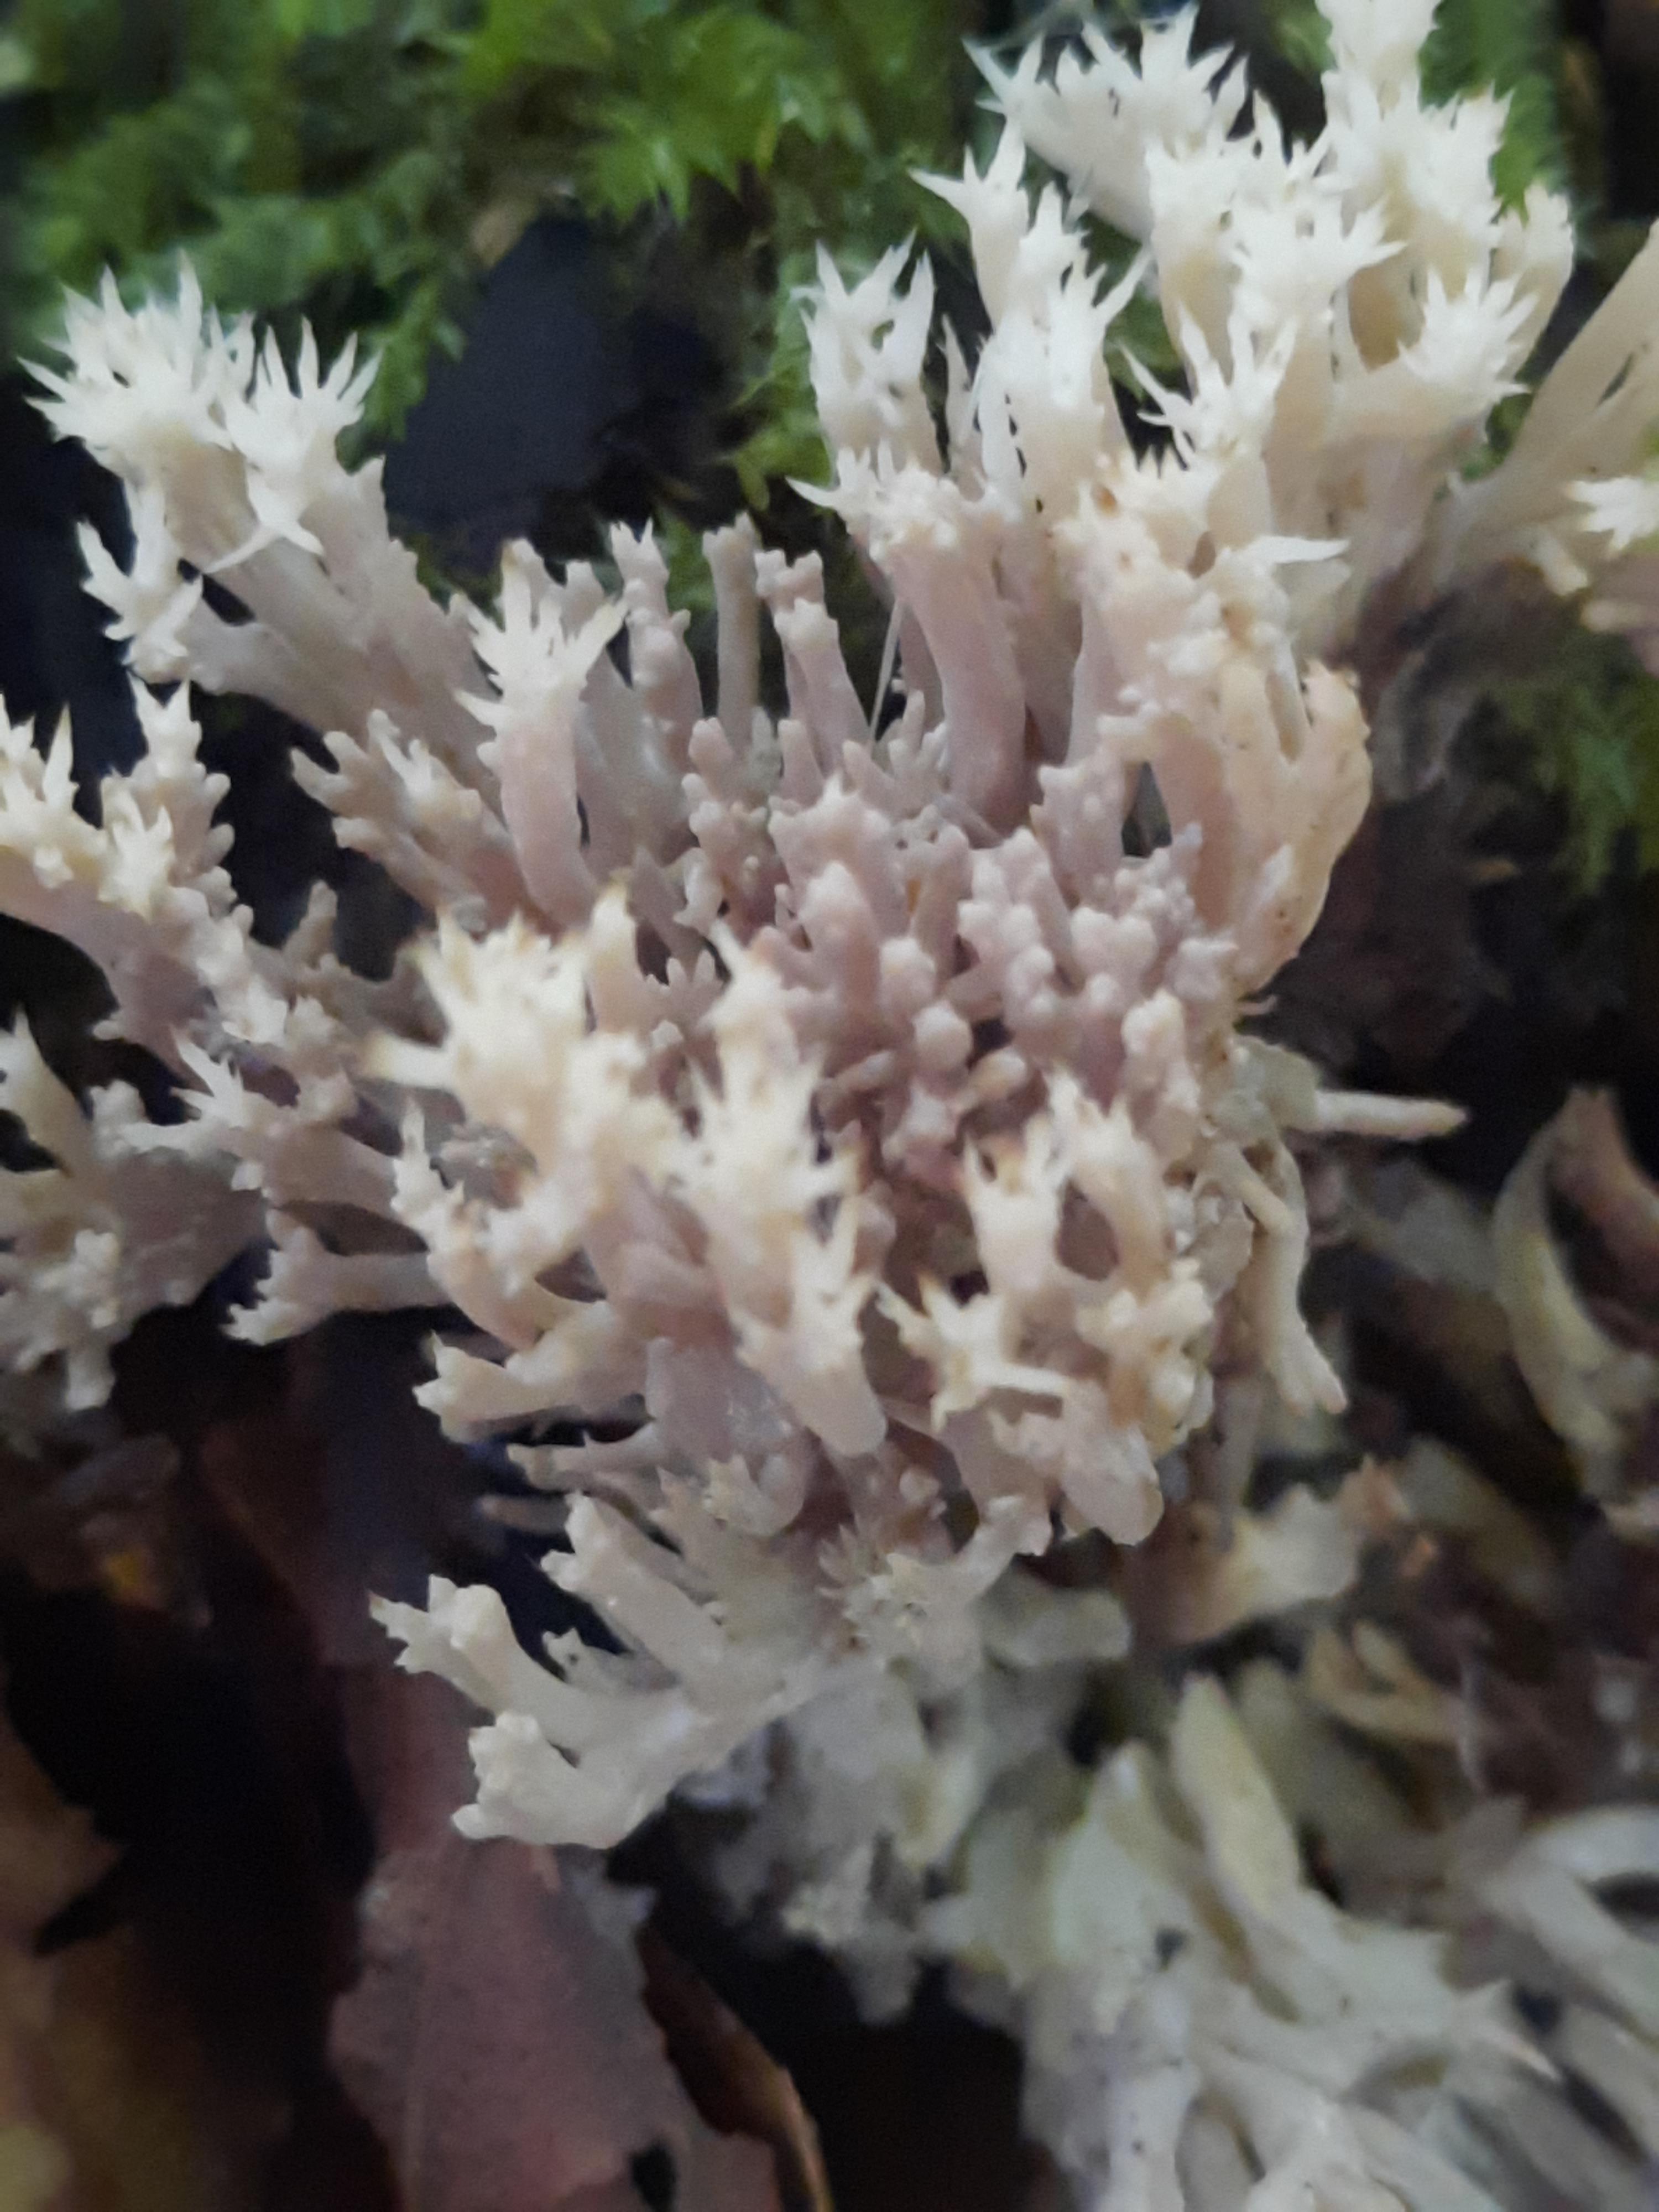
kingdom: Fungi
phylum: Basidiomycota
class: Agaricomycetes
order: Cantharellales
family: Hydnaceae
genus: Clavulina
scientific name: Clavulina
